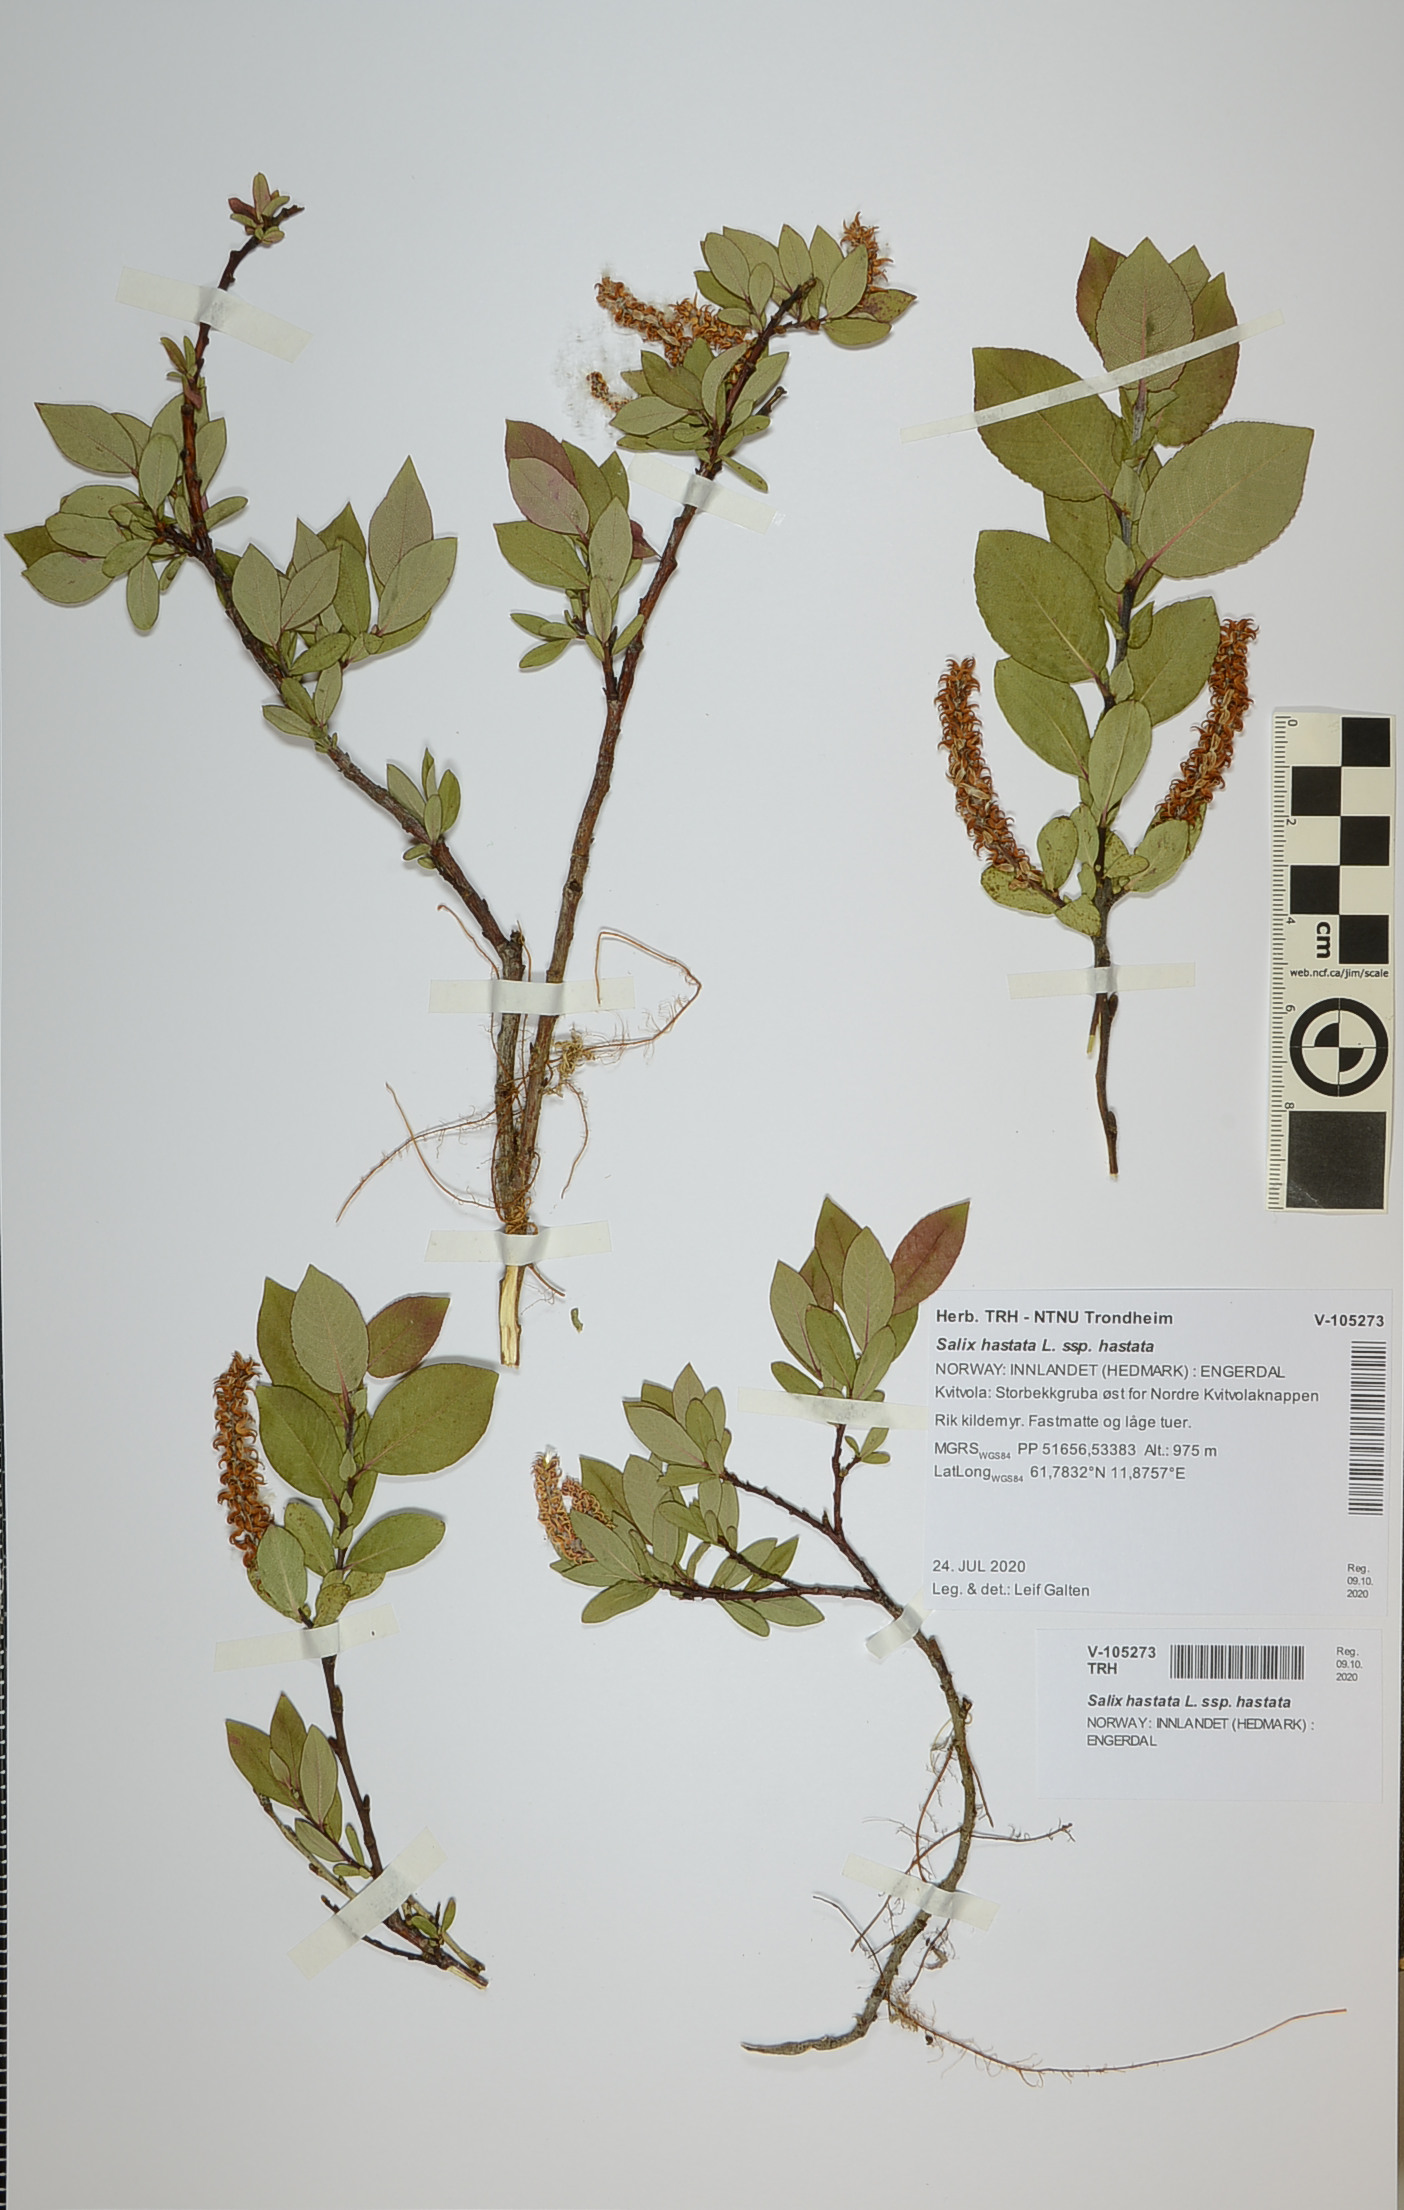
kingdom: Plantae
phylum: Tracheophyta
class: Magnoliopsida
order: Malpighiales
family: Salicaceae
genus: Salix
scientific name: Salix hastata
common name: Halberd willow
